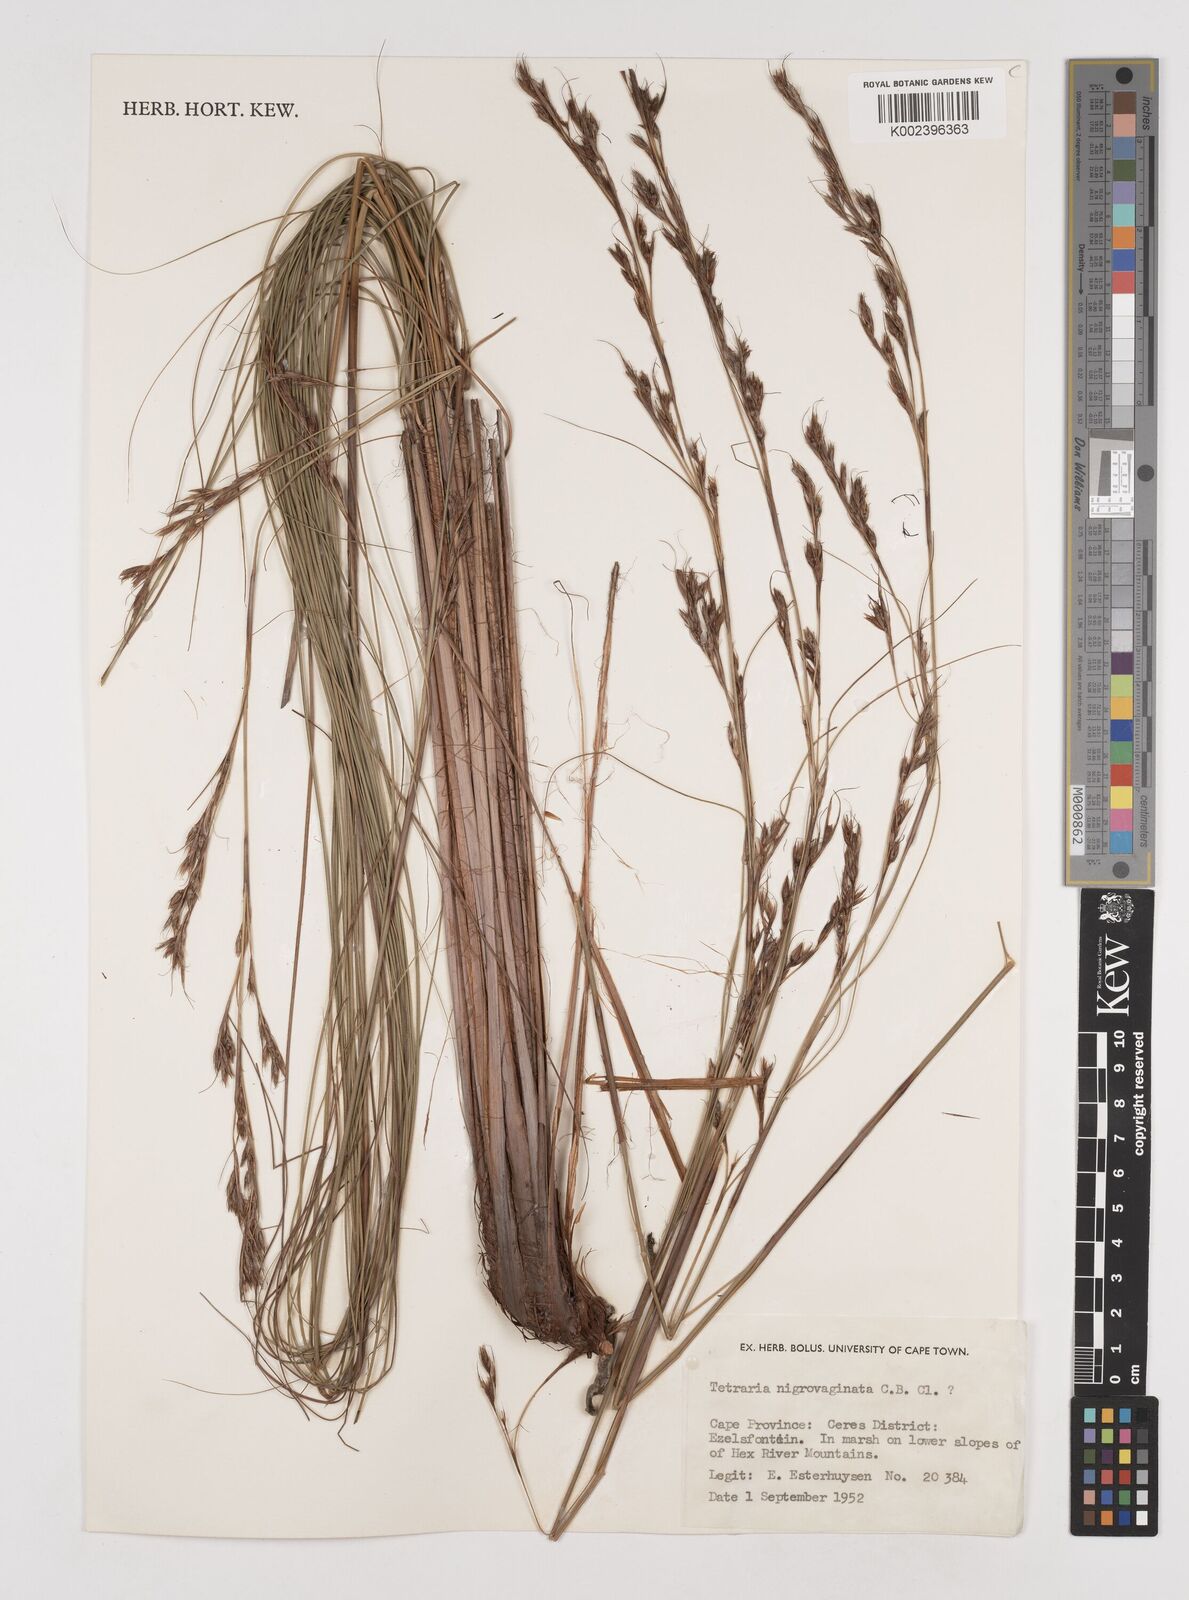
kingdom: Plantae
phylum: Tracheophyta
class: Liliopsida
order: Poales
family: Cyperaceae
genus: Tetraria
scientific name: Tetraria
